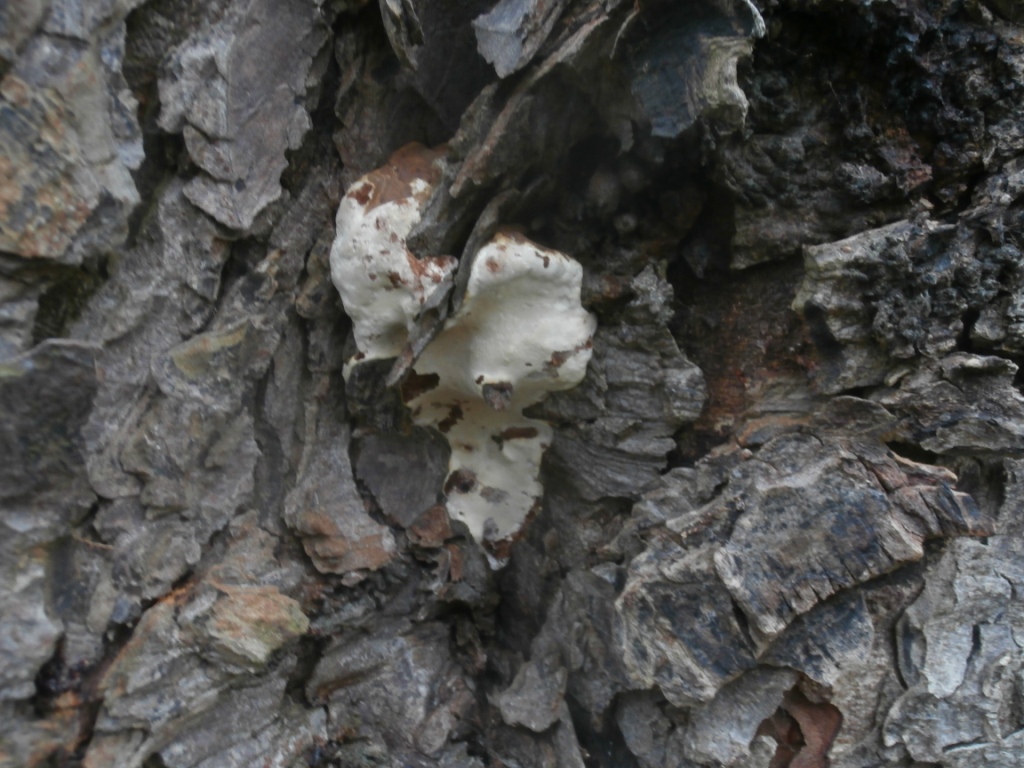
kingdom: Fungi
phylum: Basidiomycota
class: Agaricomycetes
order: Polyporales
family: Polyporaceae
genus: Ganoderma
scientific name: Ganoderma adspersum
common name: grov lakporesvamp
